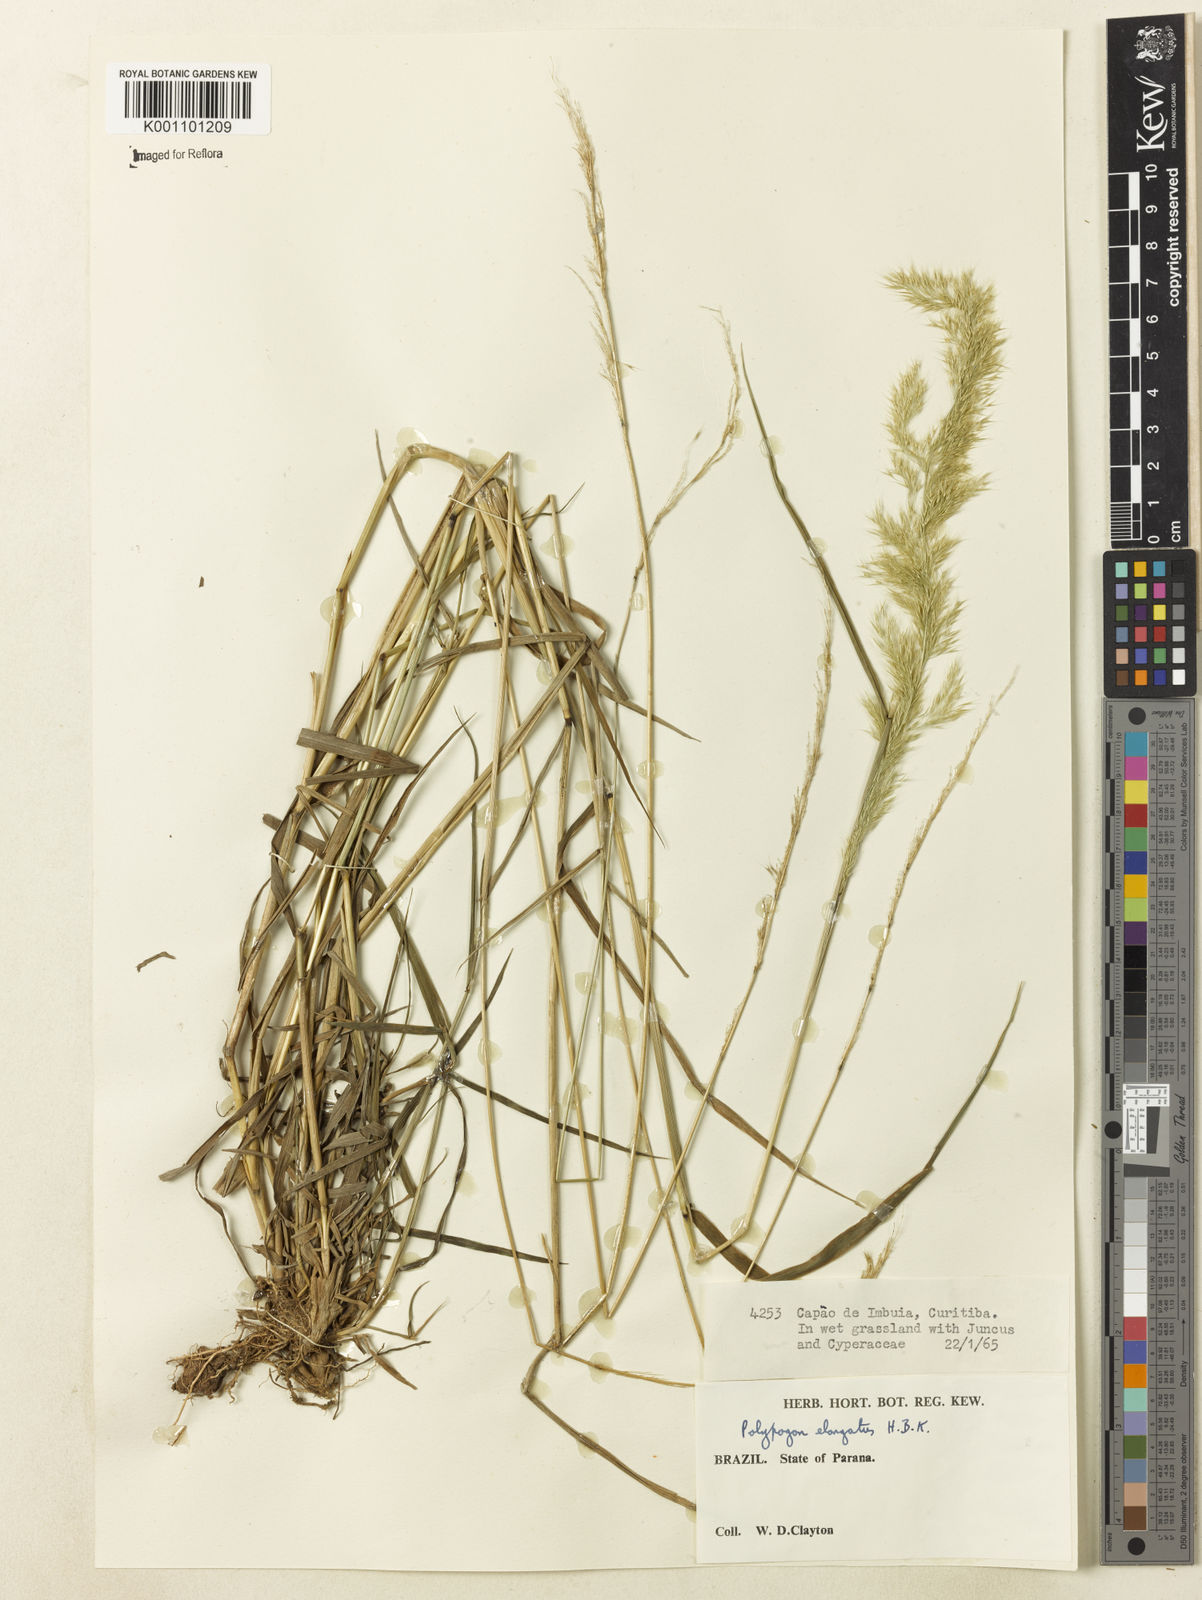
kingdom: Plantae
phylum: Tracheophyta
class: Liliopsida
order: Poales
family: Poaceae
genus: Polypogon
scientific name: Polypogon elongatus
